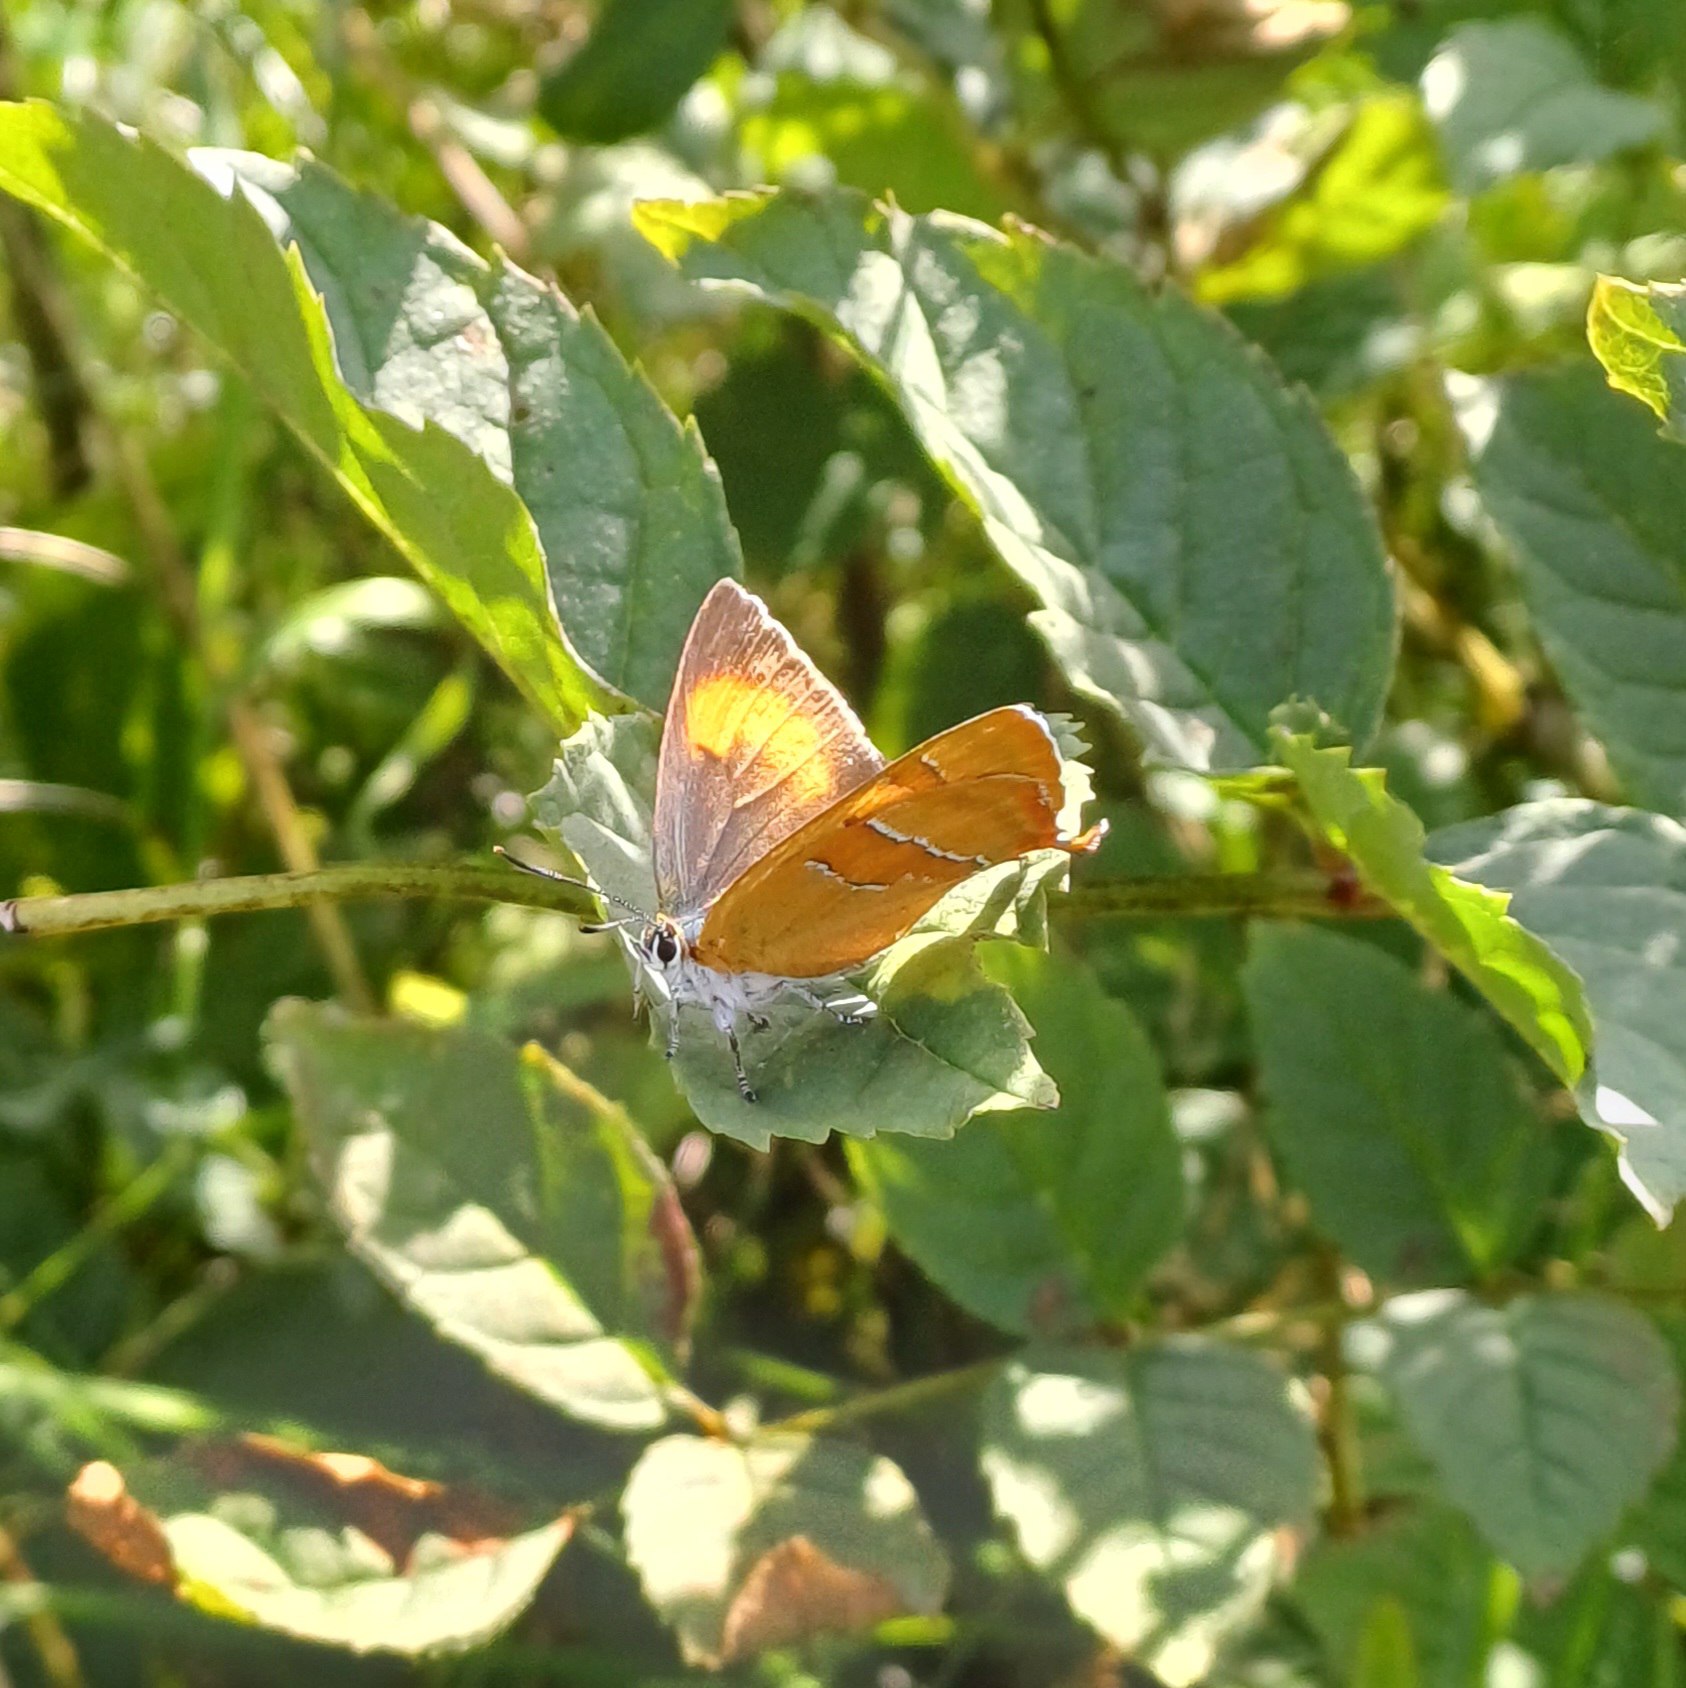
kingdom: Animalia
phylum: Arthropoda
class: Insecta
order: Lepidoptera
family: Lycaenidae
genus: Thecla
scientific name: Thecla betulae
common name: Guldhale
